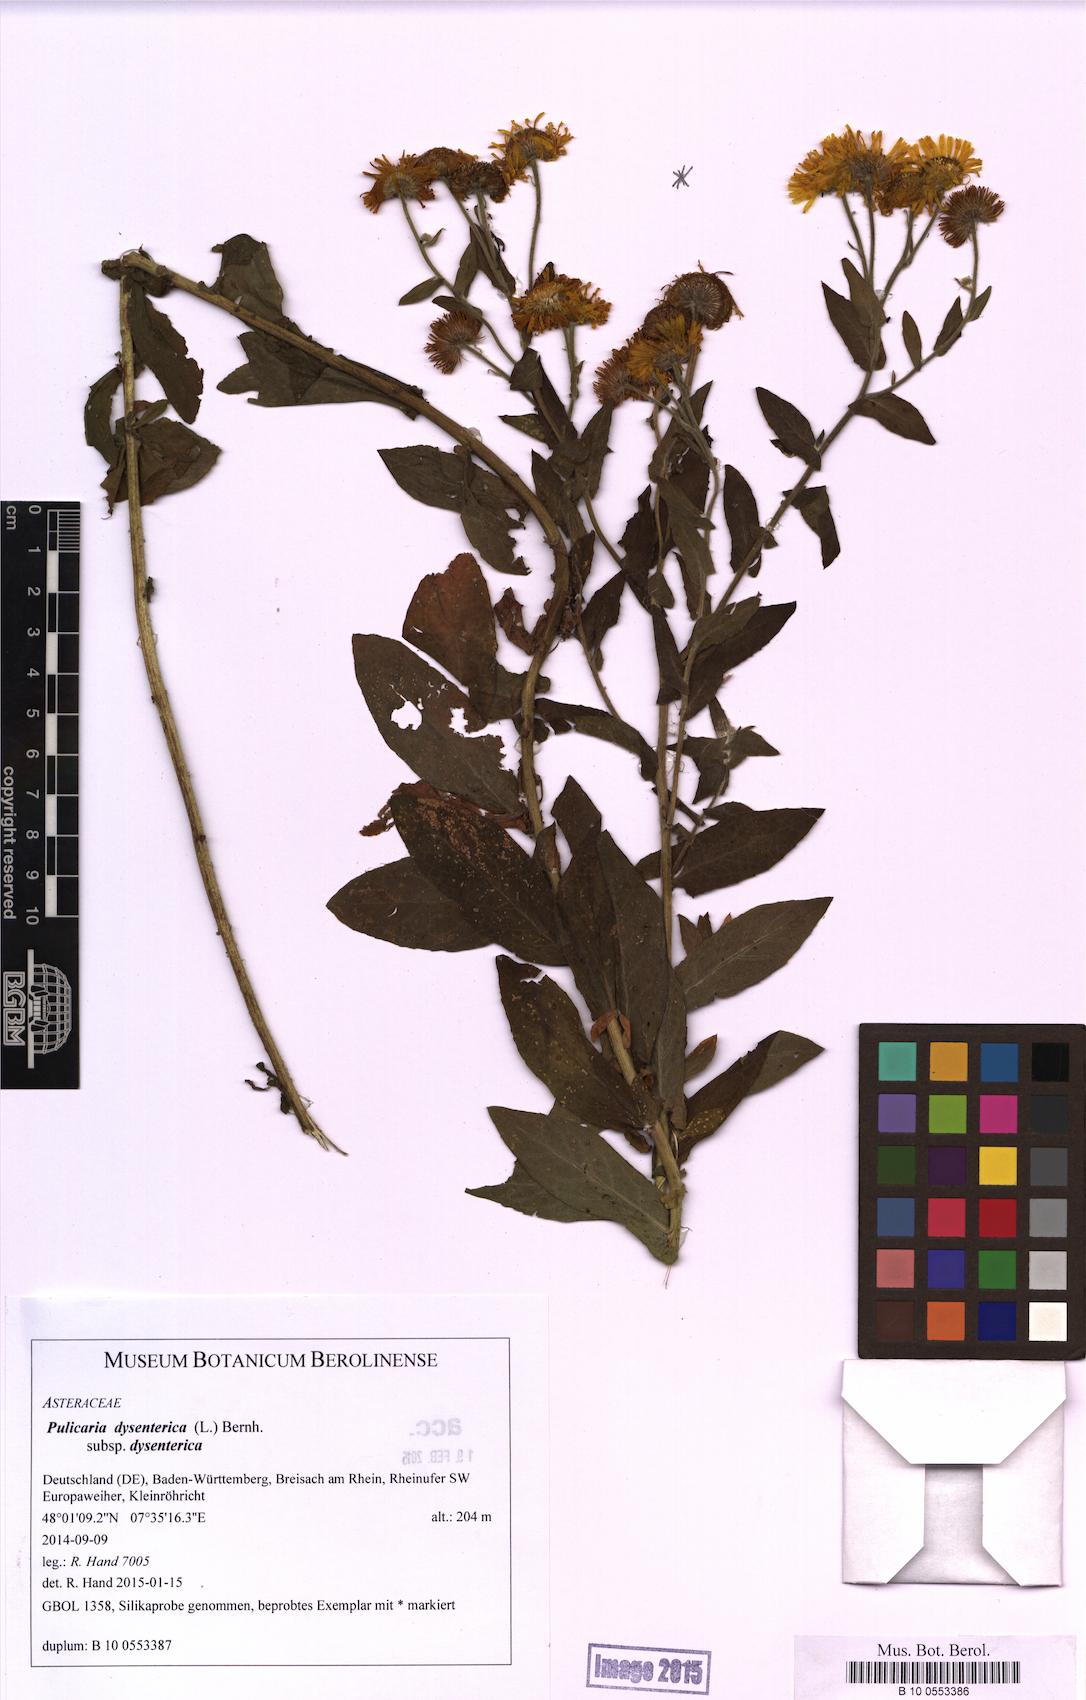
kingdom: Plantae
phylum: Tracheophyta
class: Magnoliopsida
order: Asterales
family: Asteraceae
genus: Pulicaria
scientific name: Pulicaria dysenterica
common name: Common fleabane
